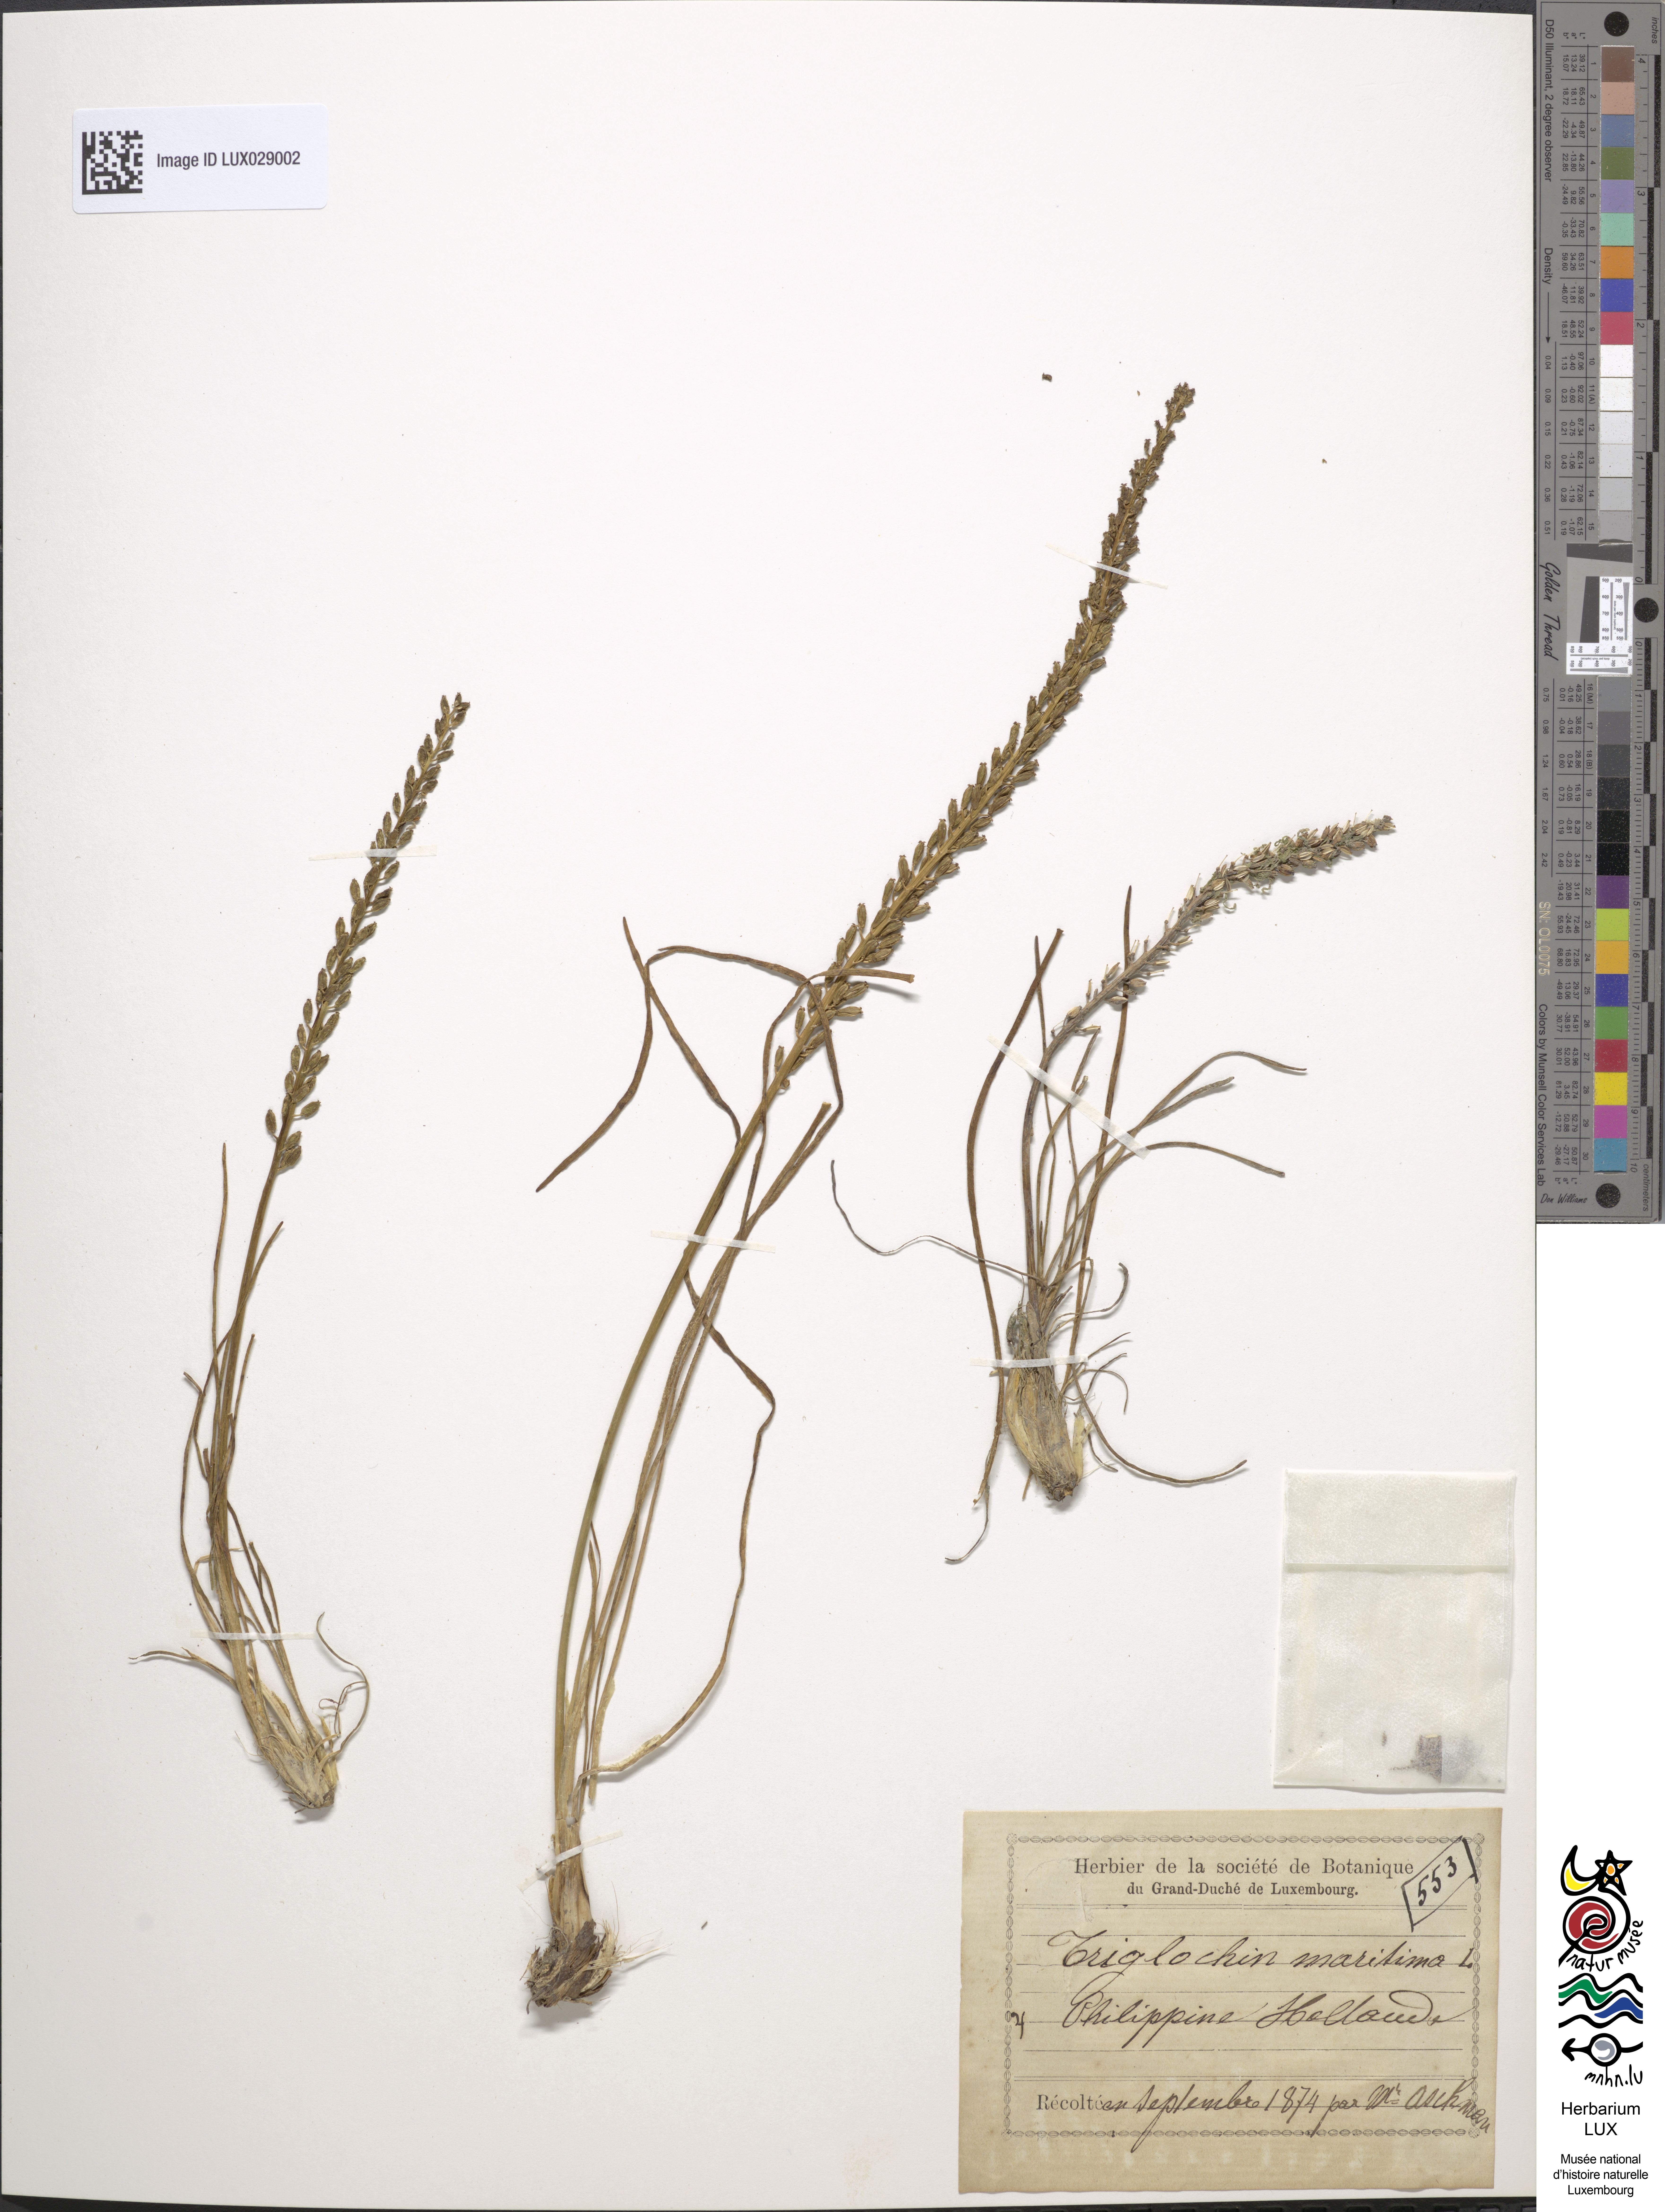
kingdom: Plantae
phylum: Tracheophyta
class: Liliopsida
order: Alismatales
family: Juncaginaceae
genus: Triglochin
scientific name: Triglochin maritima
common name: Sea arrowgrass
